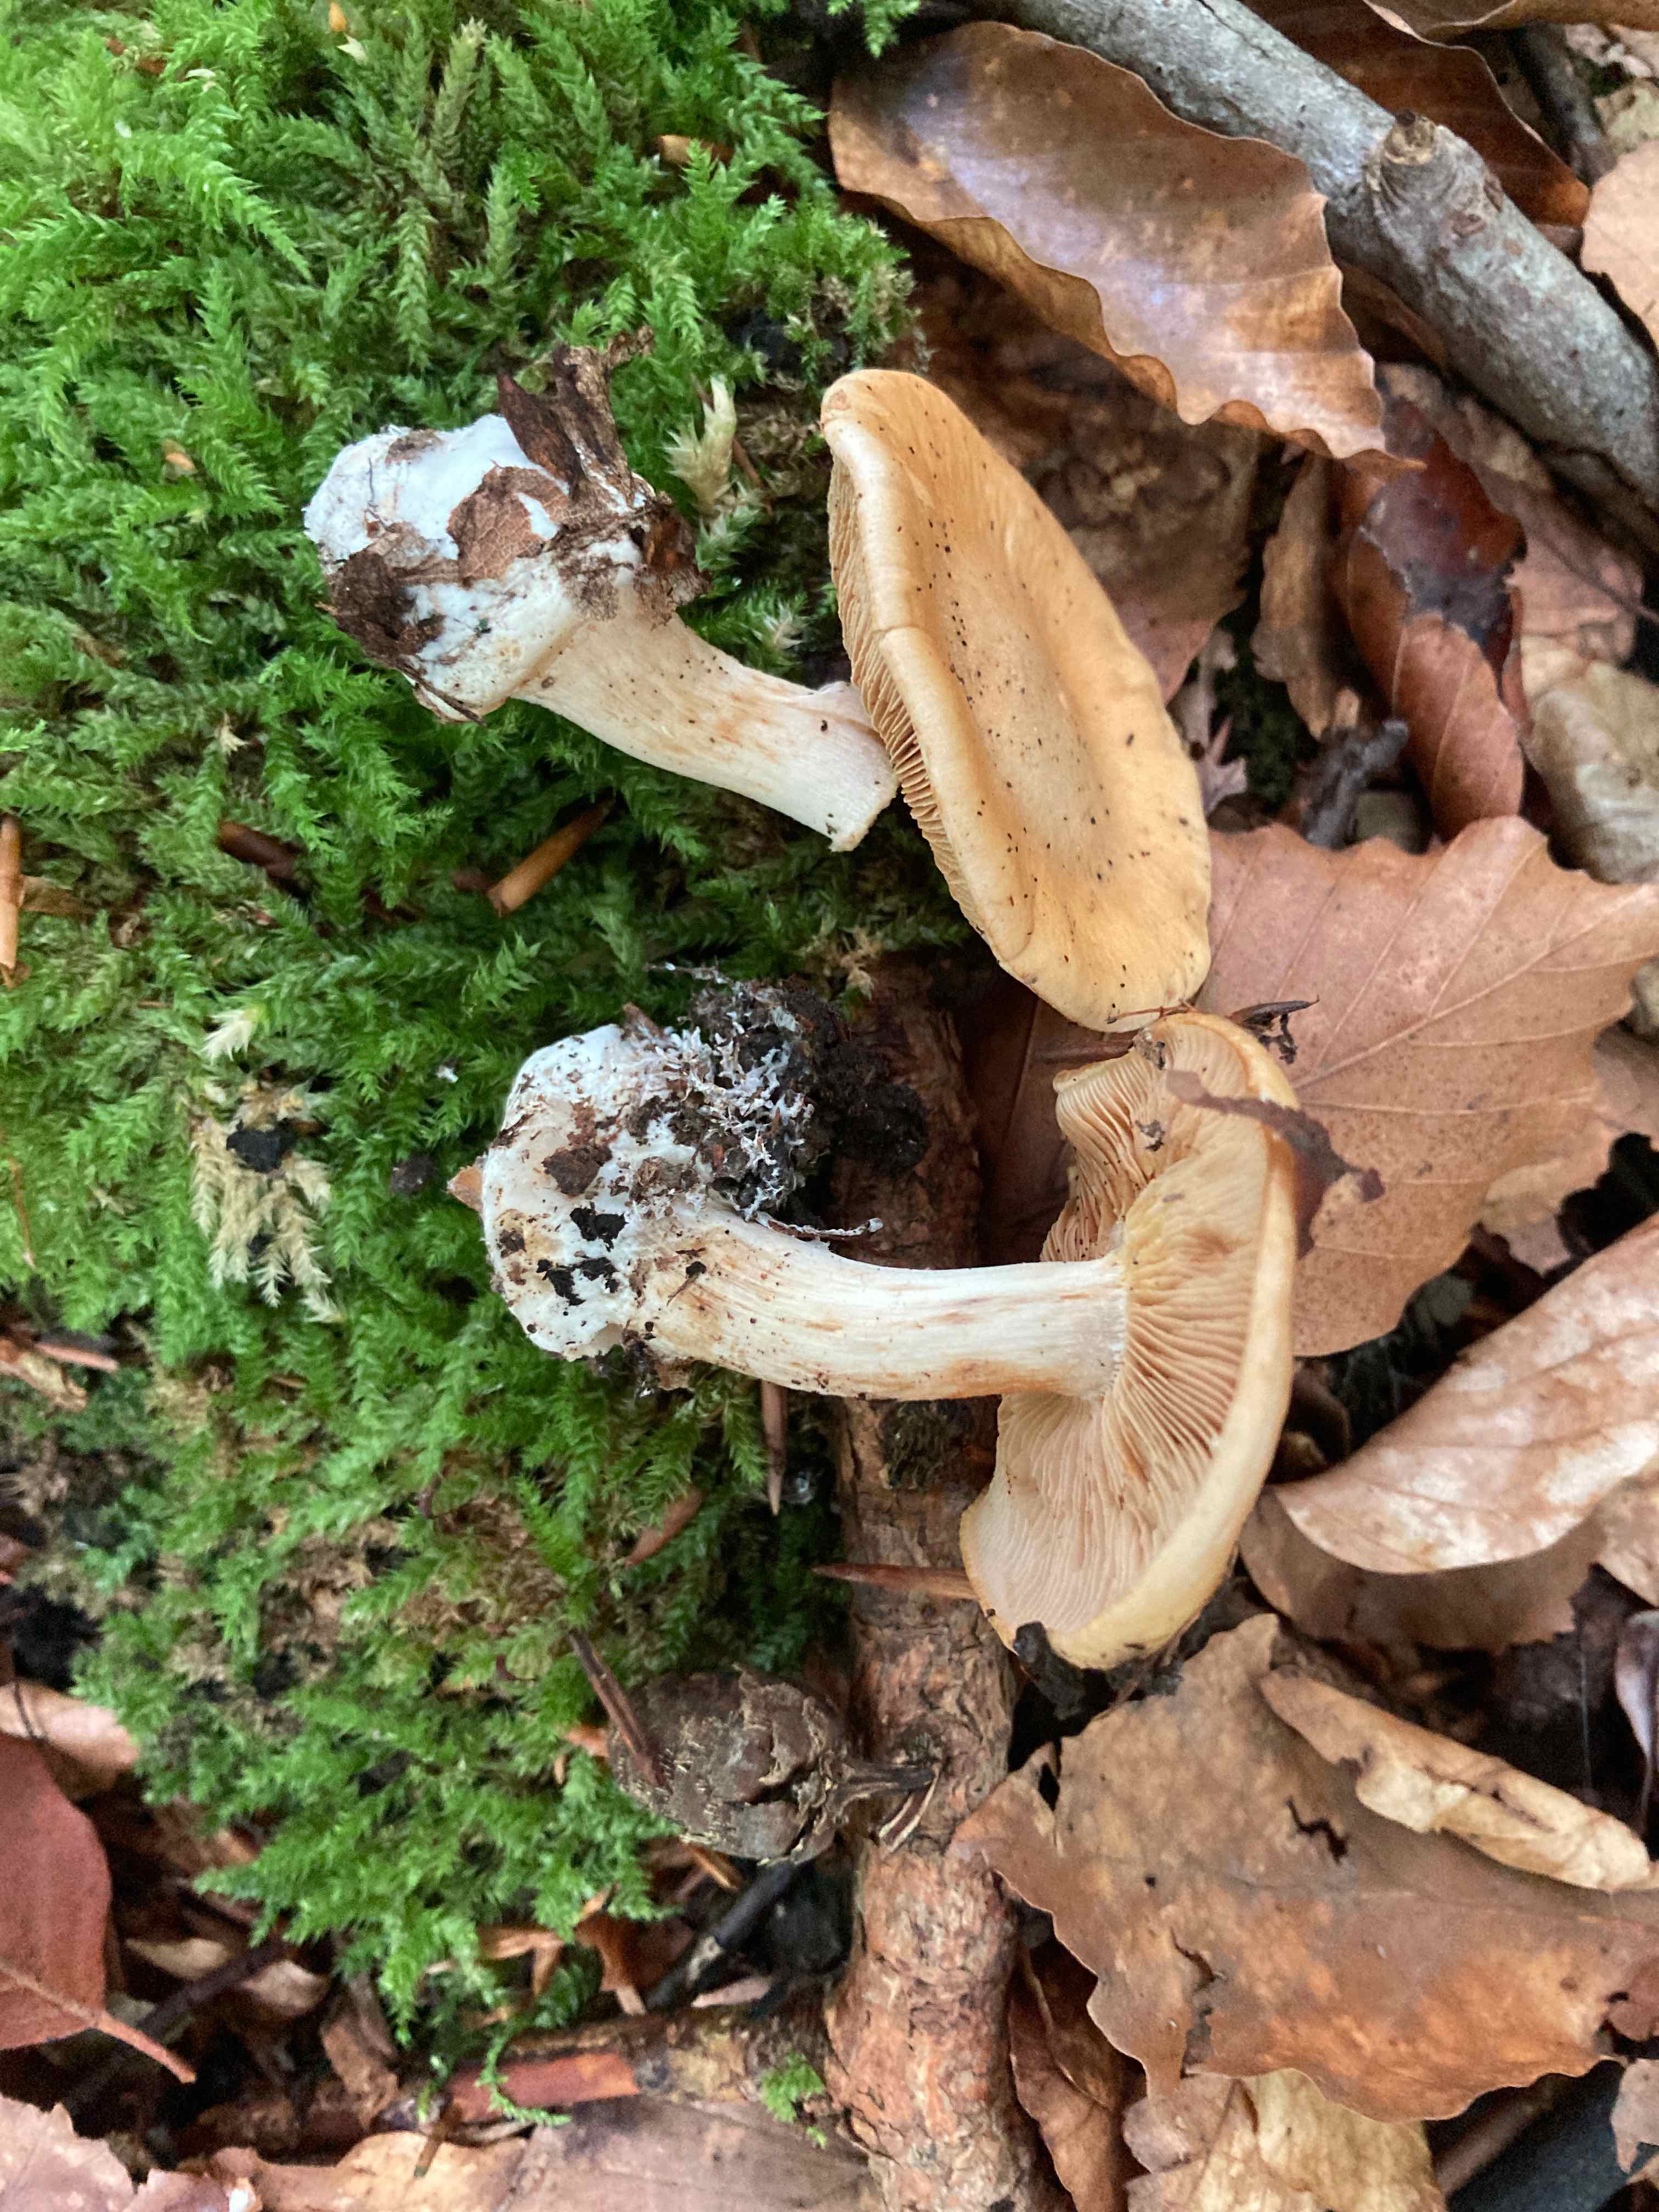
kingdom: Fungi
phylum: Basidiomycota
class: Agaricomycetes
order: Agaricales
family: Cortinariaceae
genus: Thaxterogaster
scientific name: Thaxterogaster talus
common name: knogle-slørhat
